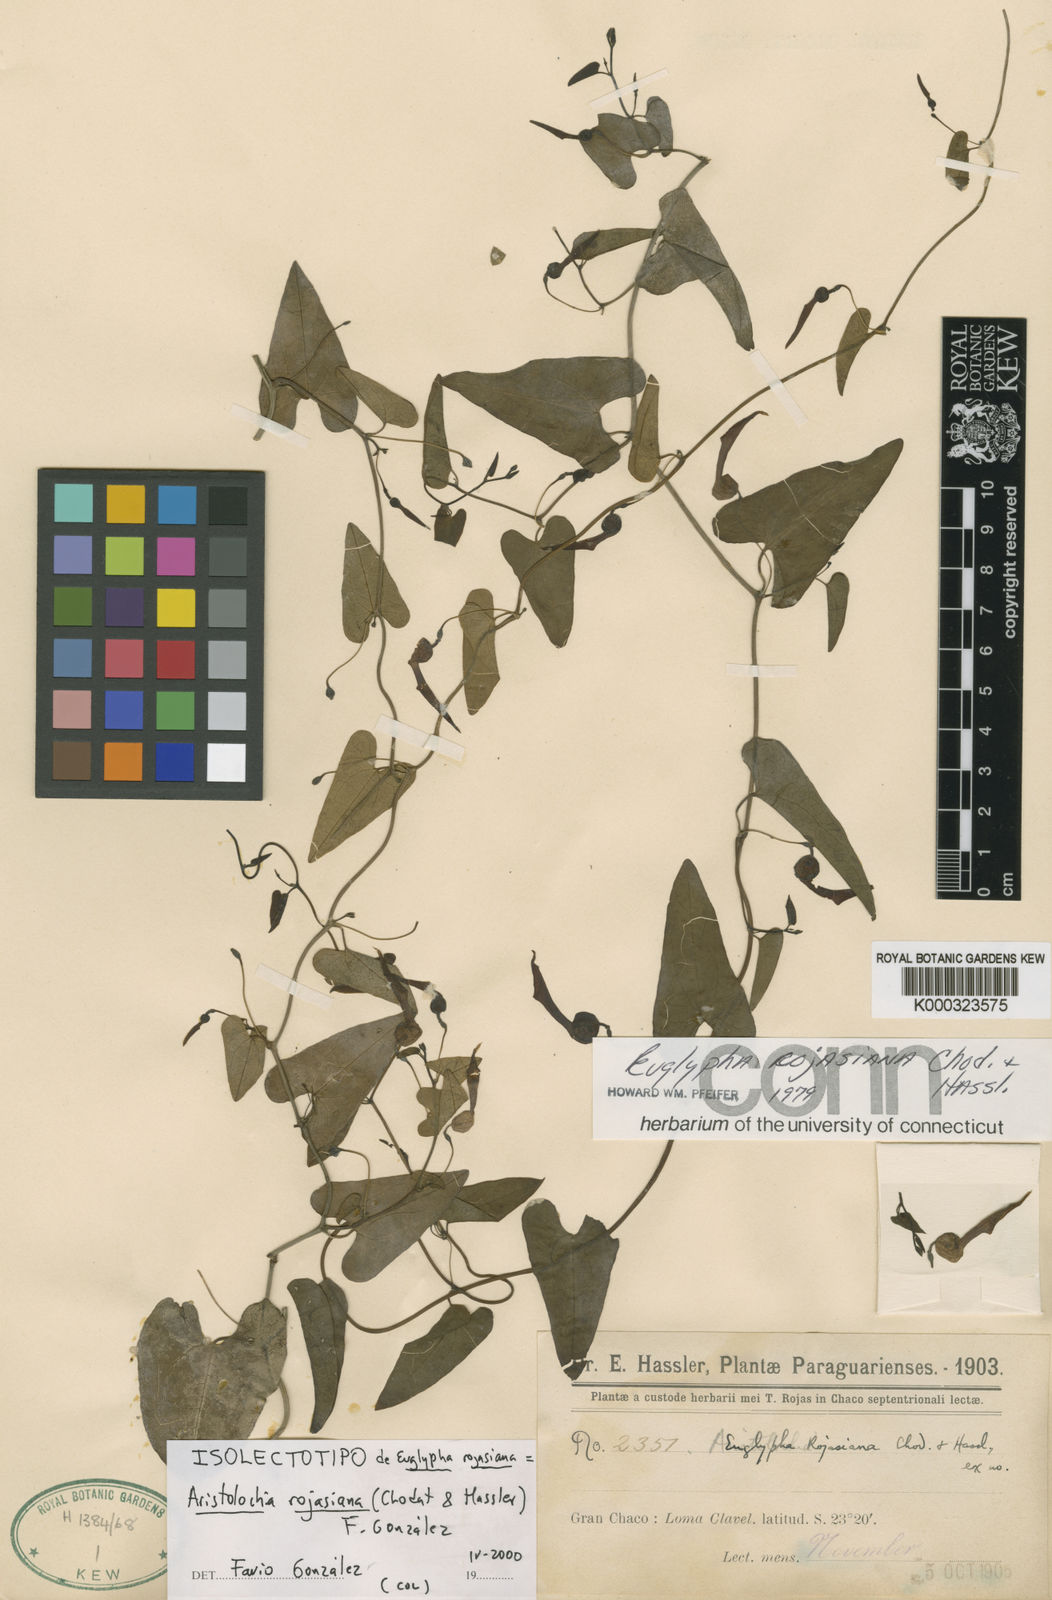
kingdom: Plantae
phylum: Tracheophyta
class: Magnoliopsida
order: Piperales
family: Aristolochiaceae
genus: Aristolochia
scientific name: Aristolochia
